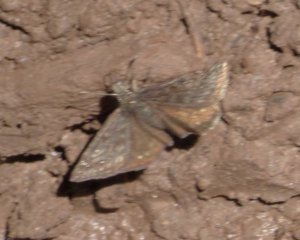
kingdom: Animalia
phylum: Arthropoda
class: Insecta
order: Lepidoptera
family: Hesperiidae
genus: Gesta
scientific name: Gesta
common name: Persius Duskywing
